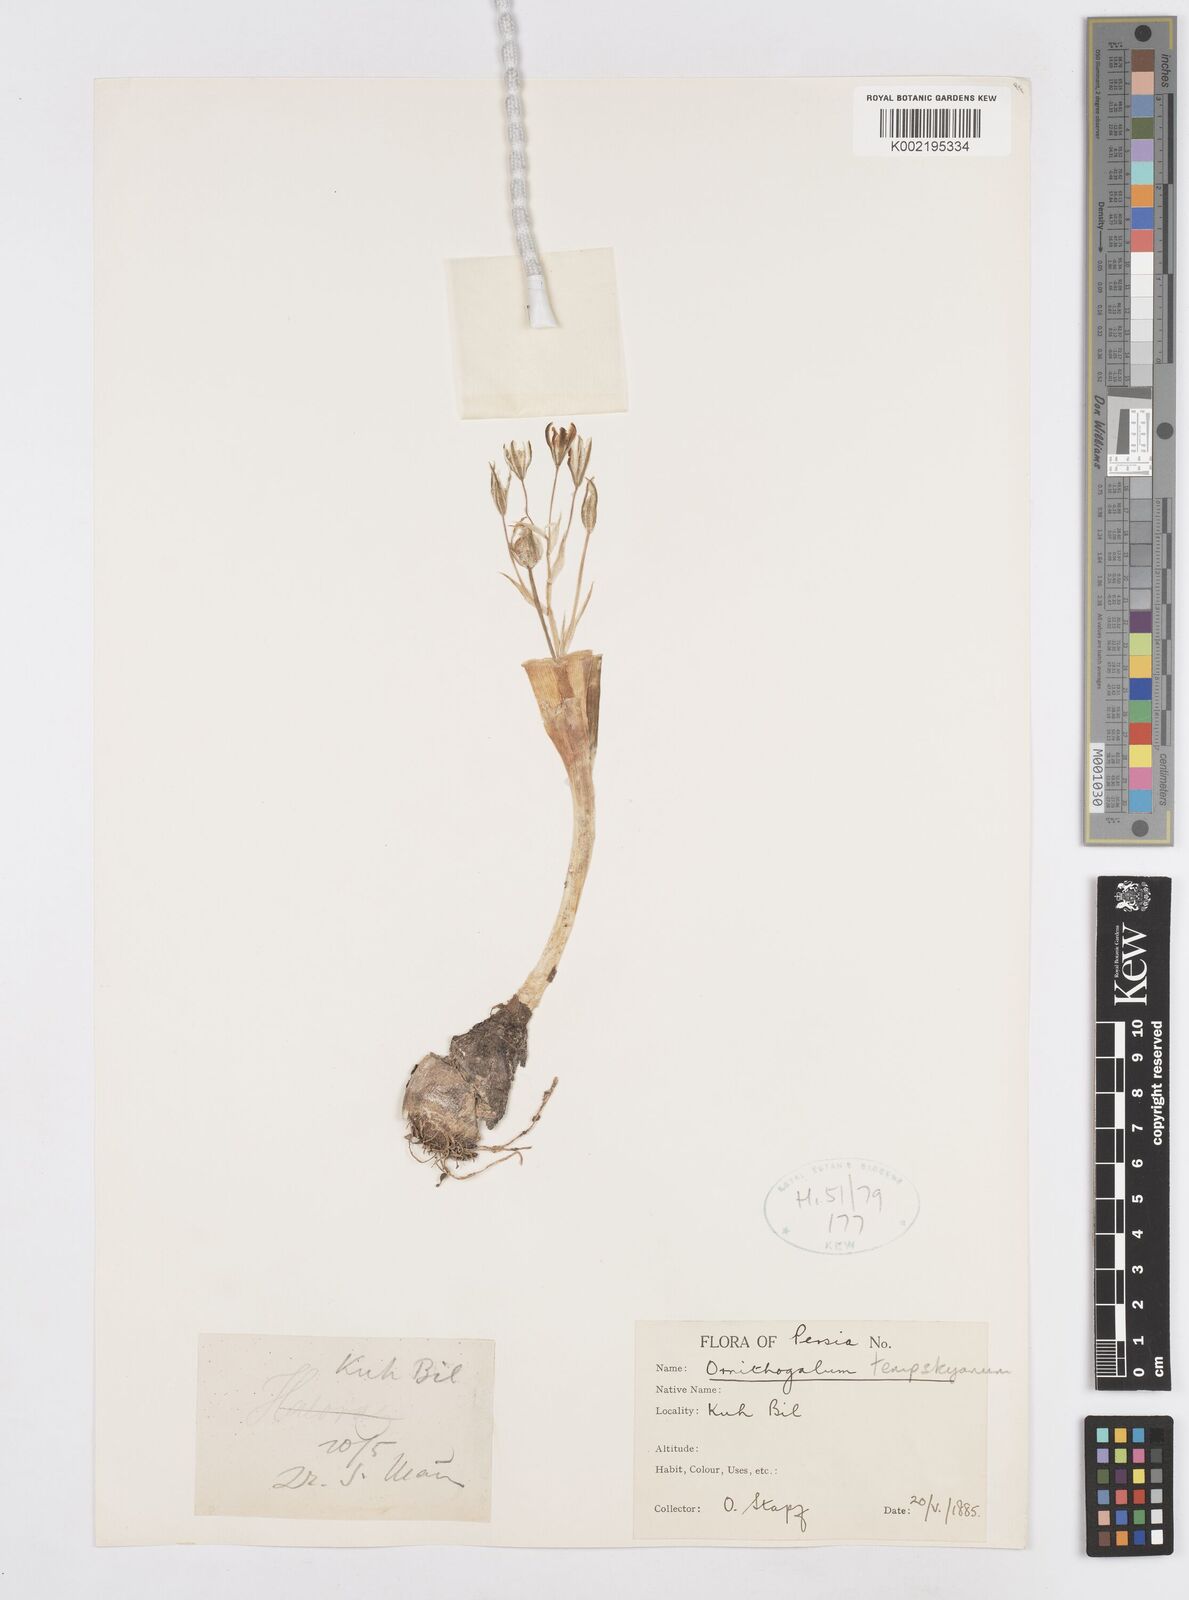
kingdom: Plantae
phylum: Tracheophyta
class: Liliopsida
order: Asparagales
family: Asparagaceae
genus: Ornithogalum
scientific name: Ornithogalum graciliflorum
